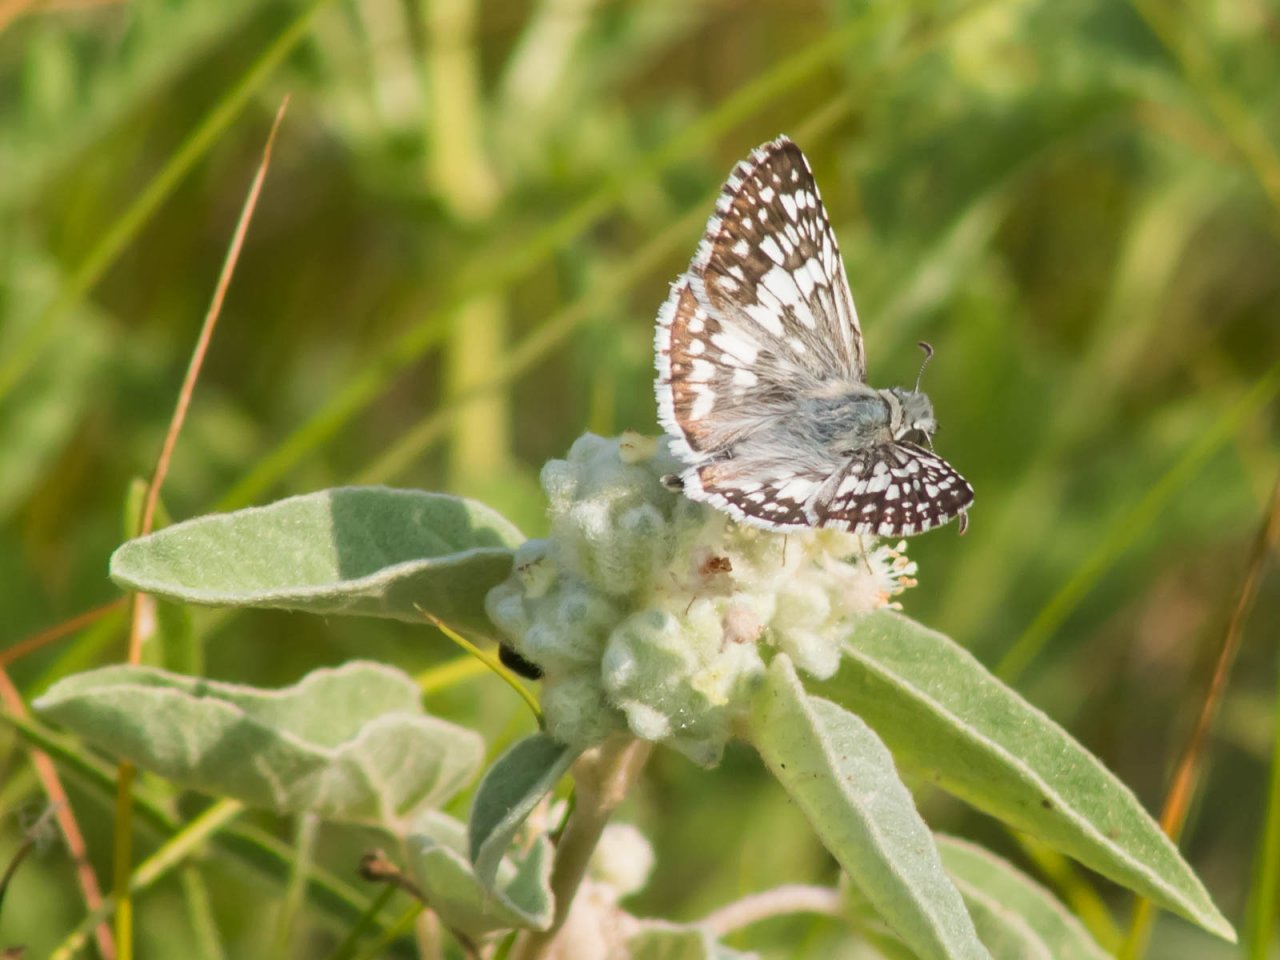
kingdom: Animalia
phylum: Arthropoda
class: Insecta
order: Lepidoptera
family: Hesperiidae
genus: Pyrgus
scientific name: Pyrgus
